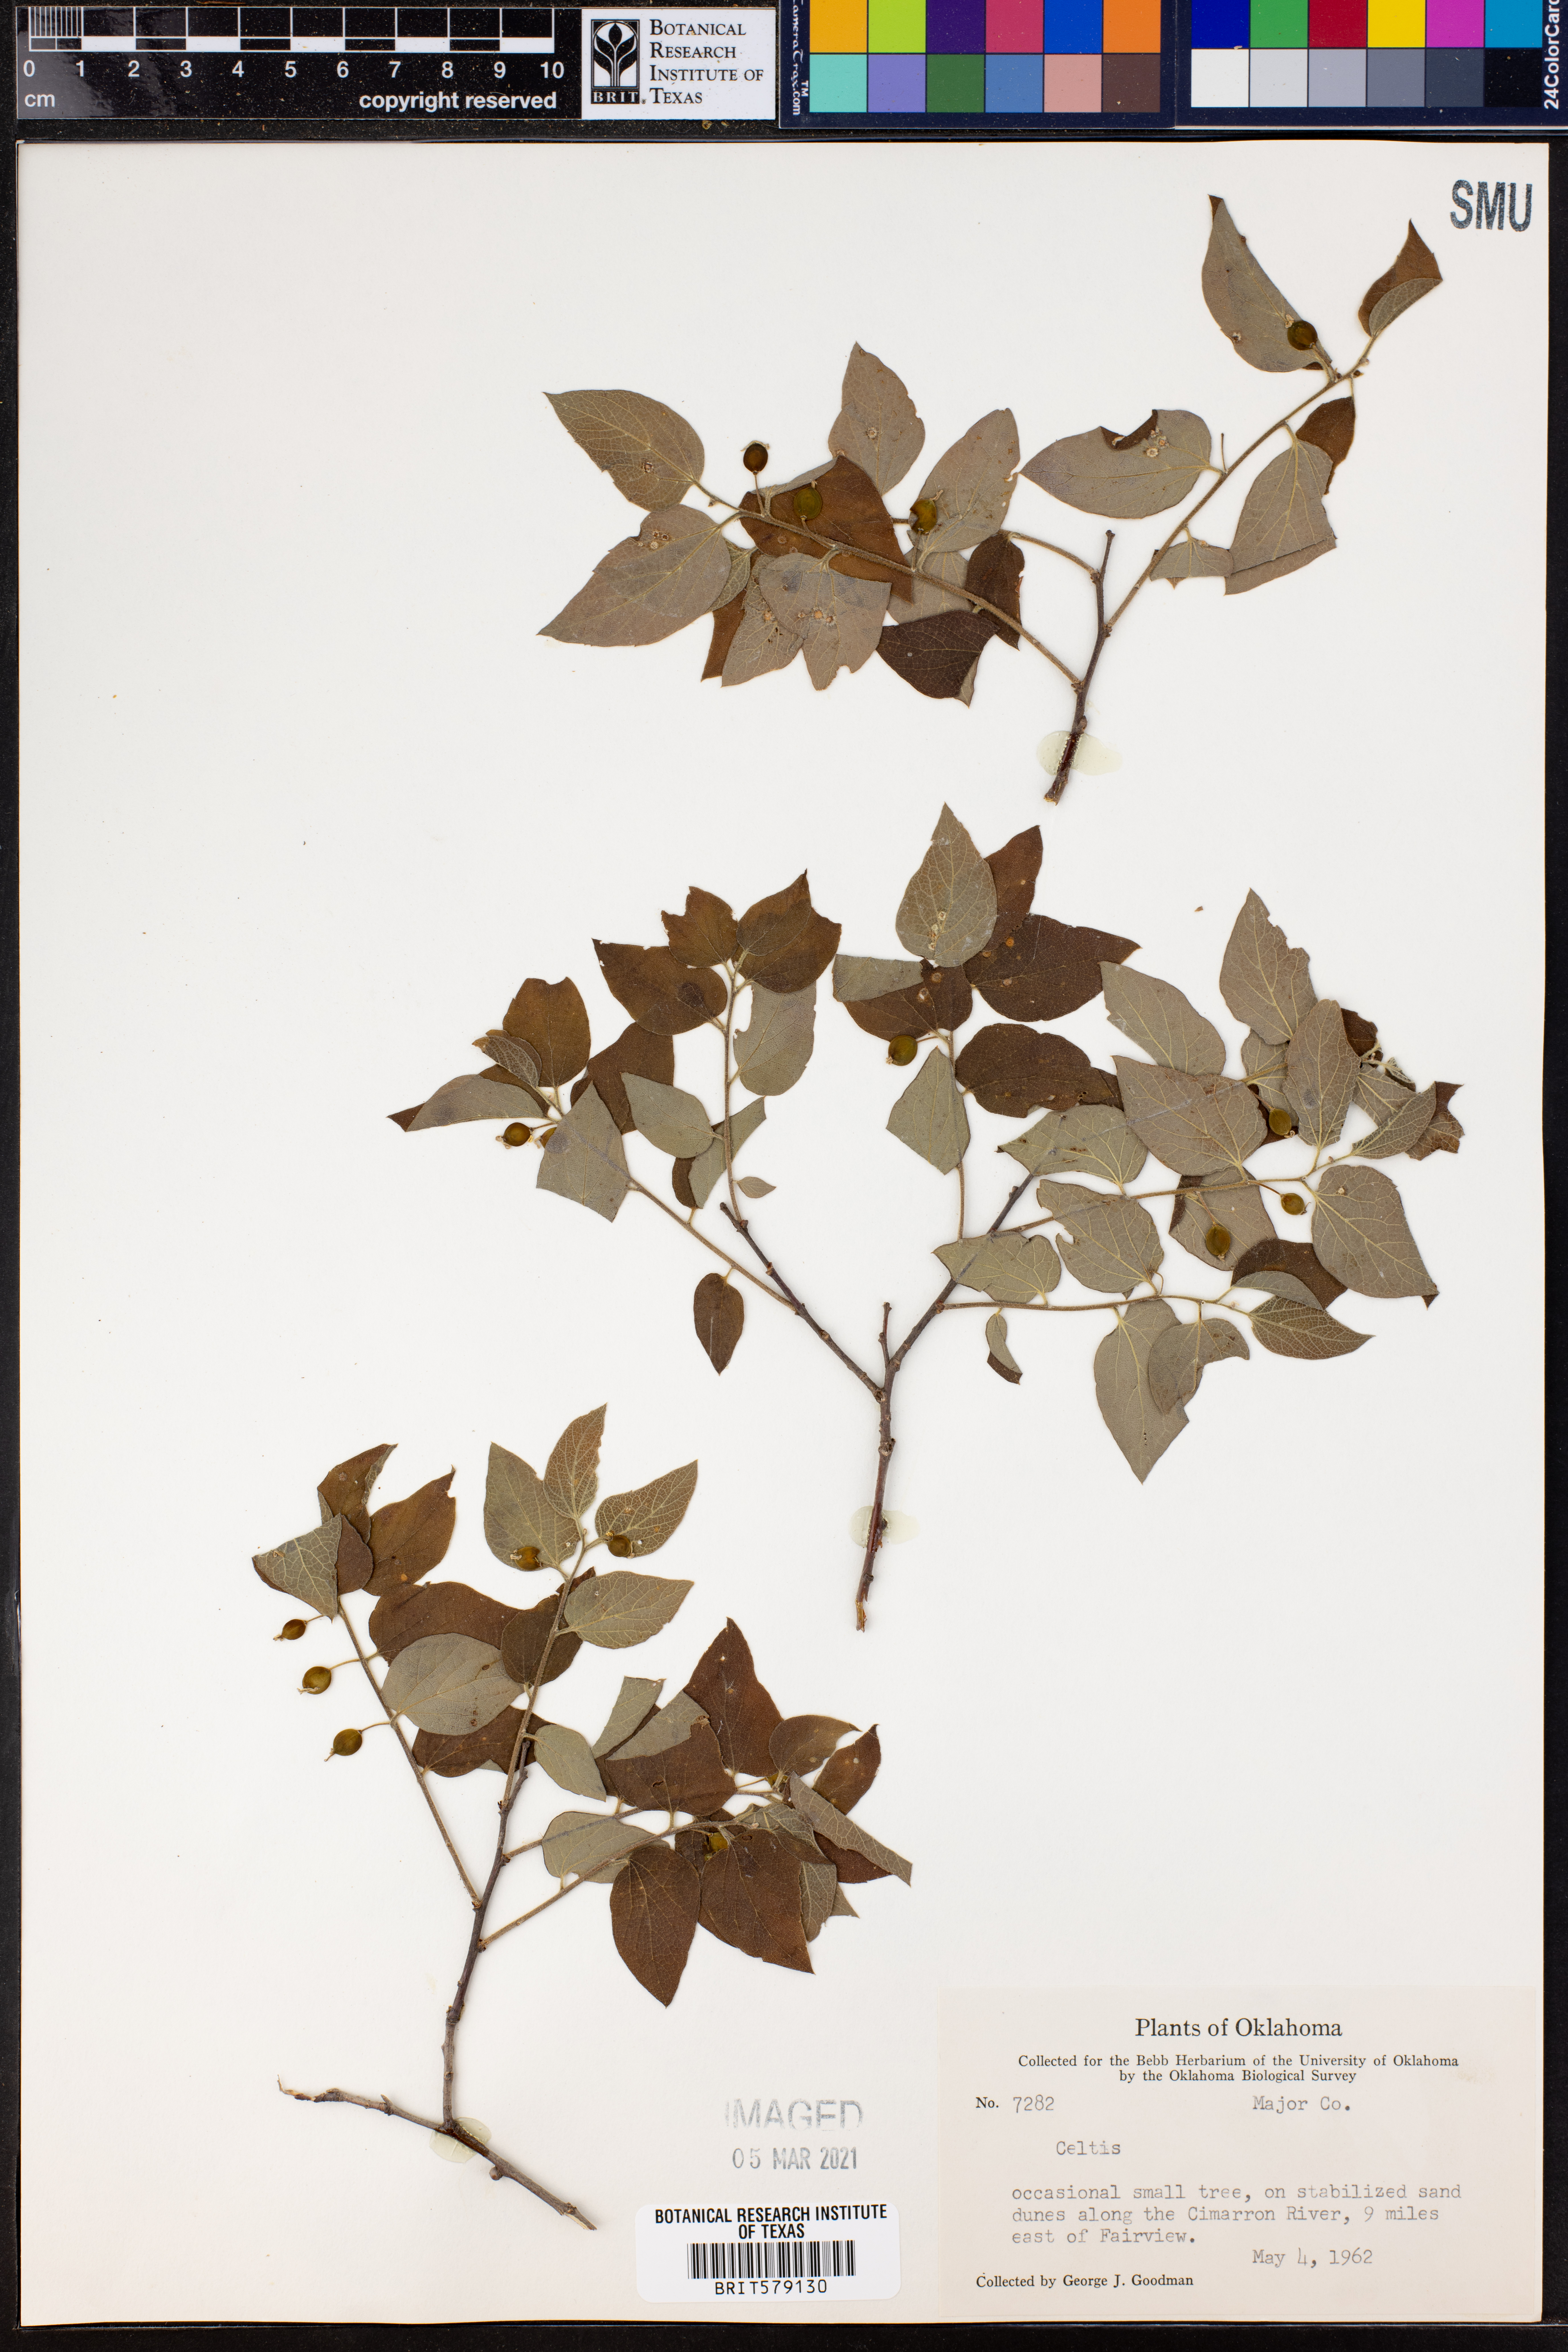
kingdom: Plantae
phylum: Tracheophyta
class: Magnoliopsida
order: Rosales
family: Cannabaceae
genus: Celtis
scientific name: Celtis
